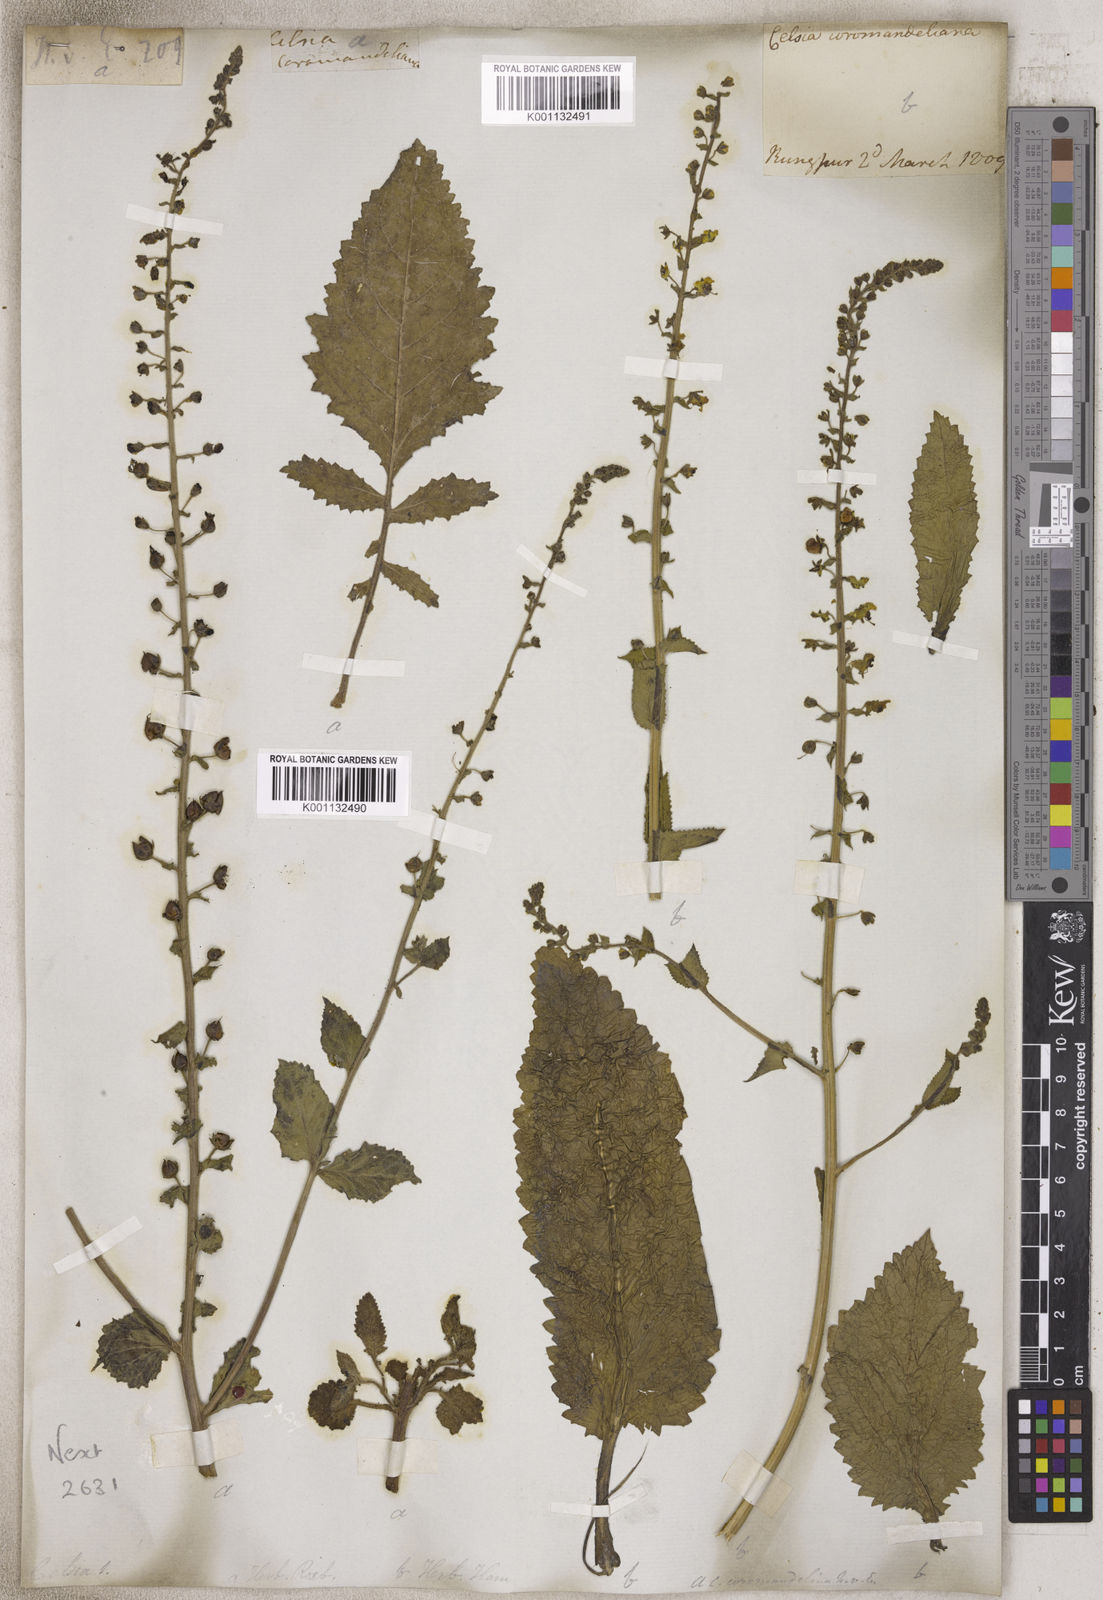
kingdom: Animalia
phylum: Arthropoda
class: Insecta
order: Lepidoptera
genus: Celsia
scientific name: Celsia
